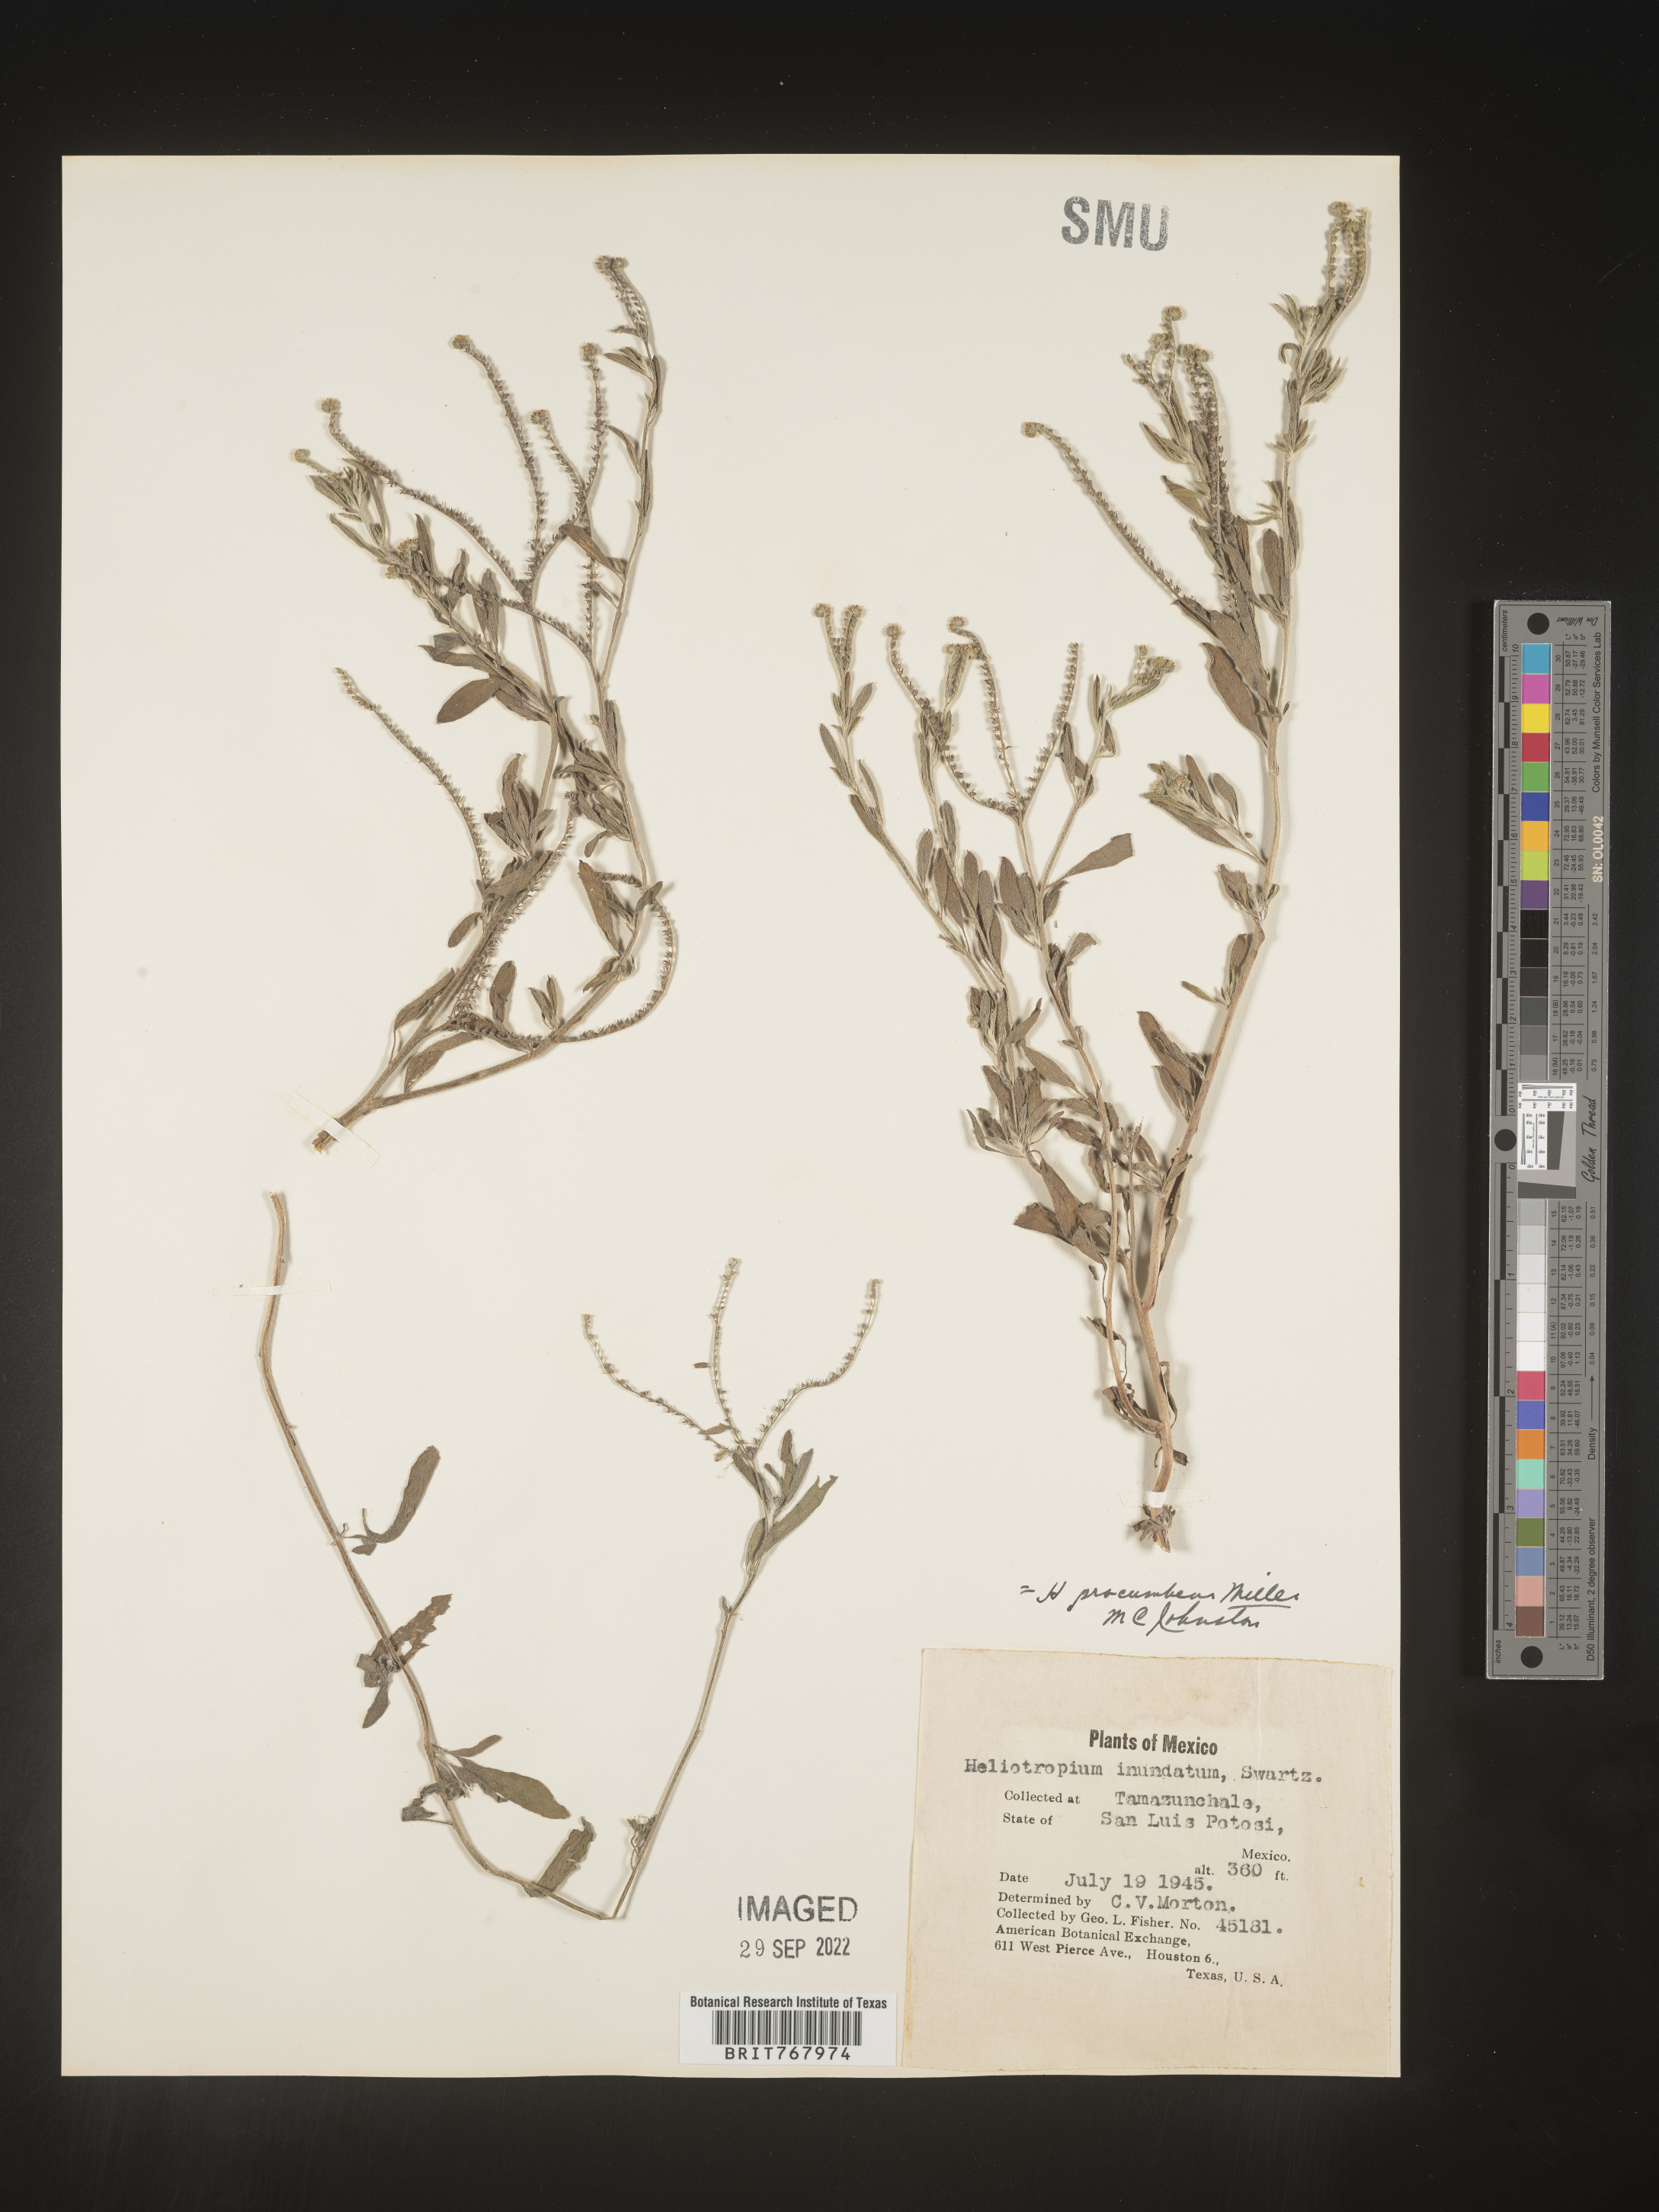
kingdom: Plantae
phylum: Tracheophyta
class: Magnoliopsida
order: Boraginales
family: Heliotropiaceae
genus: Heliotropium
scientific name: Heliotropium
